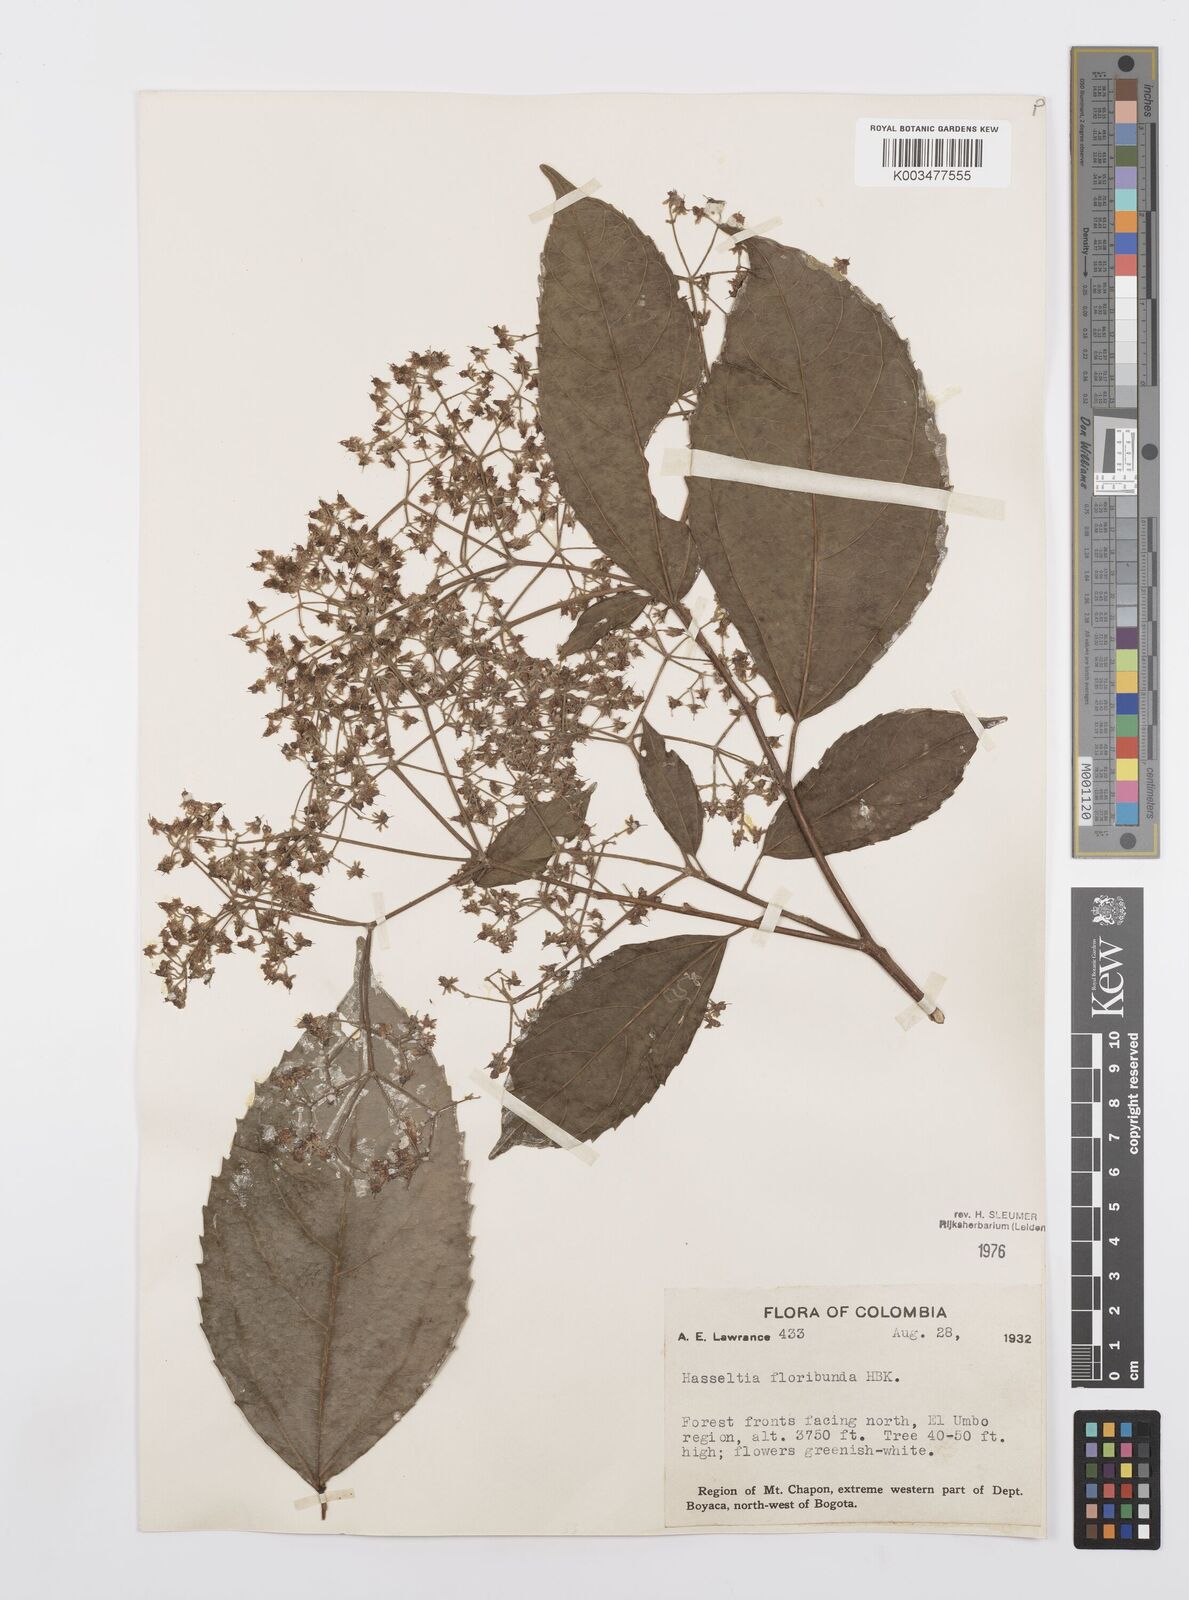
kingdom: Plantae
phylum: Tracheophyta
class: Magnoliopsida
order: Malpighiales
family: Salicaceae
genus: Hasseltia
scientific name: Hasseltia floribunda
